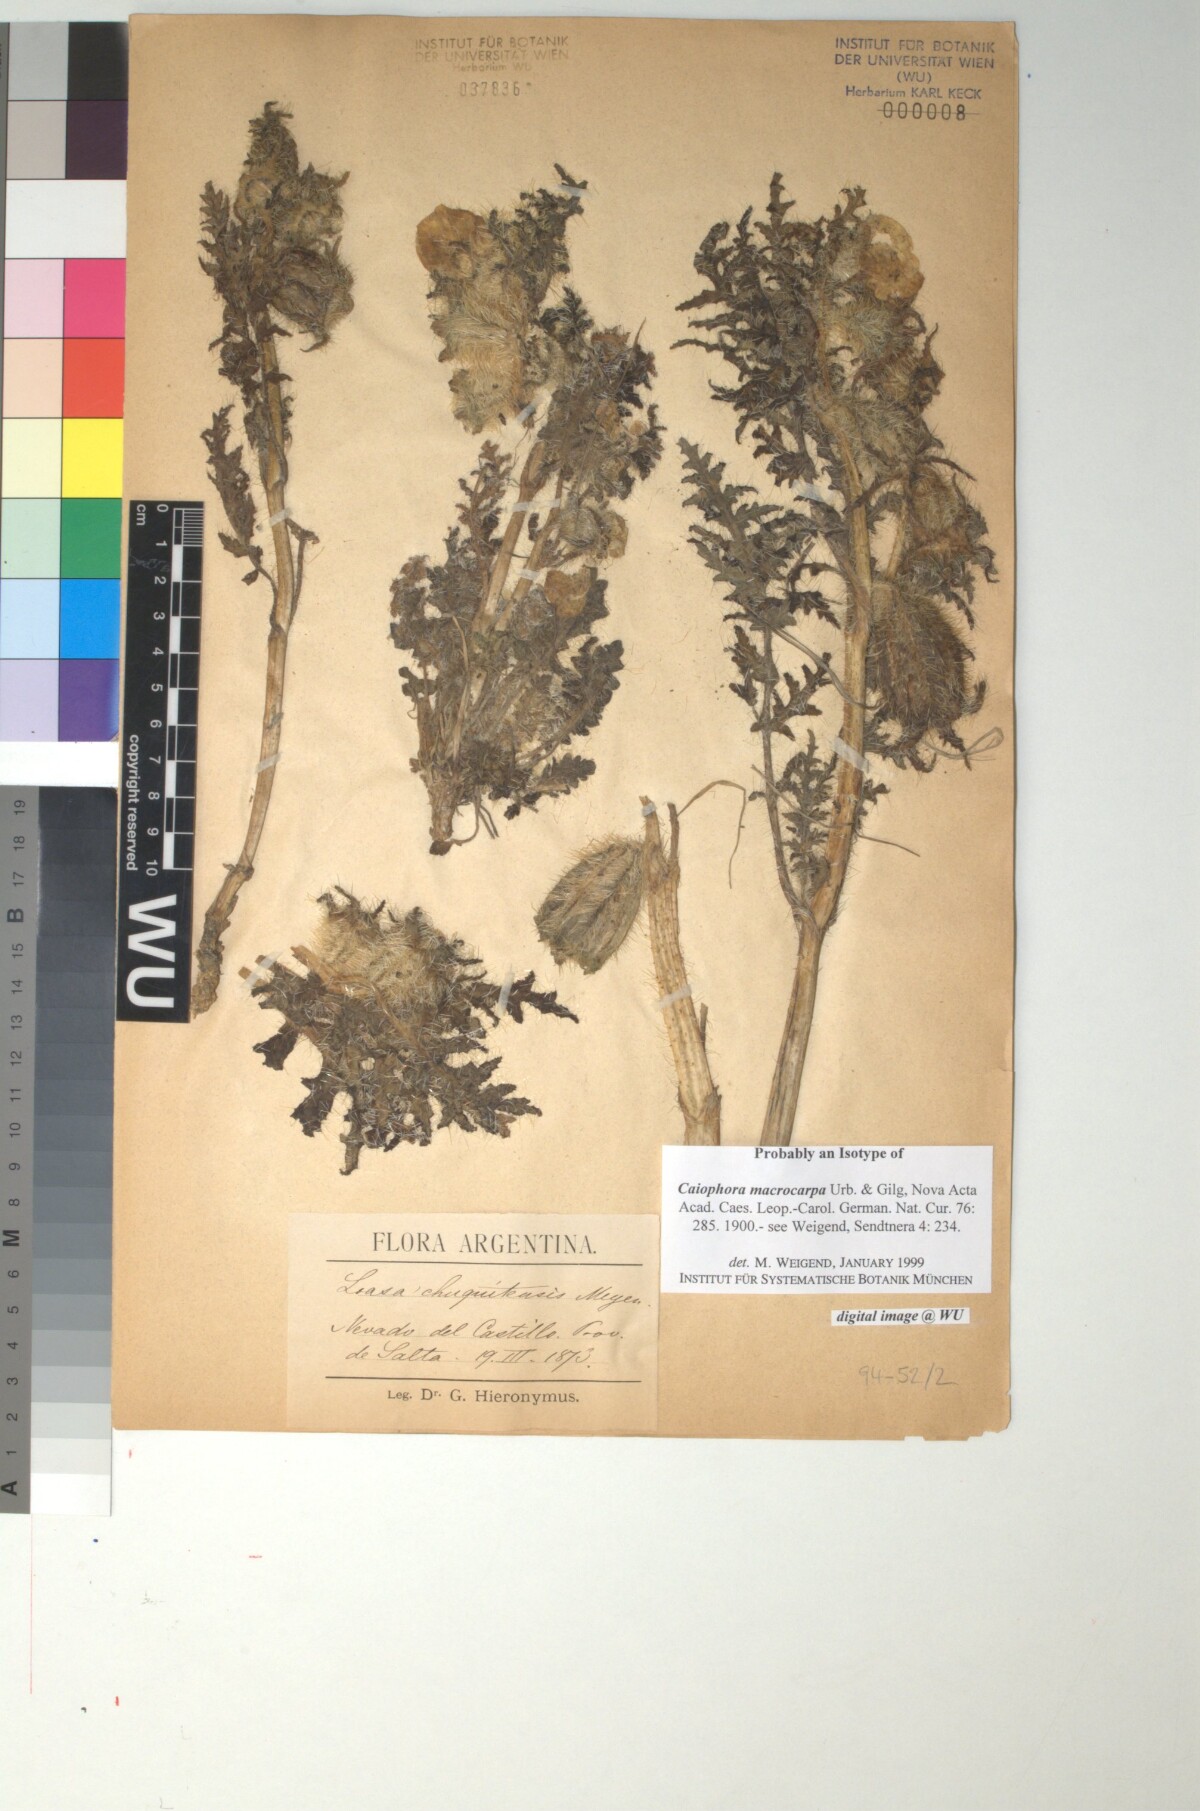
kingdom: Plantae
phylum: Tracheophyta
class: Magnoliopsida
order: Cornales
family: Loasaceae
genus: Caiophora
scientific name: Caiophora chuquitensis
